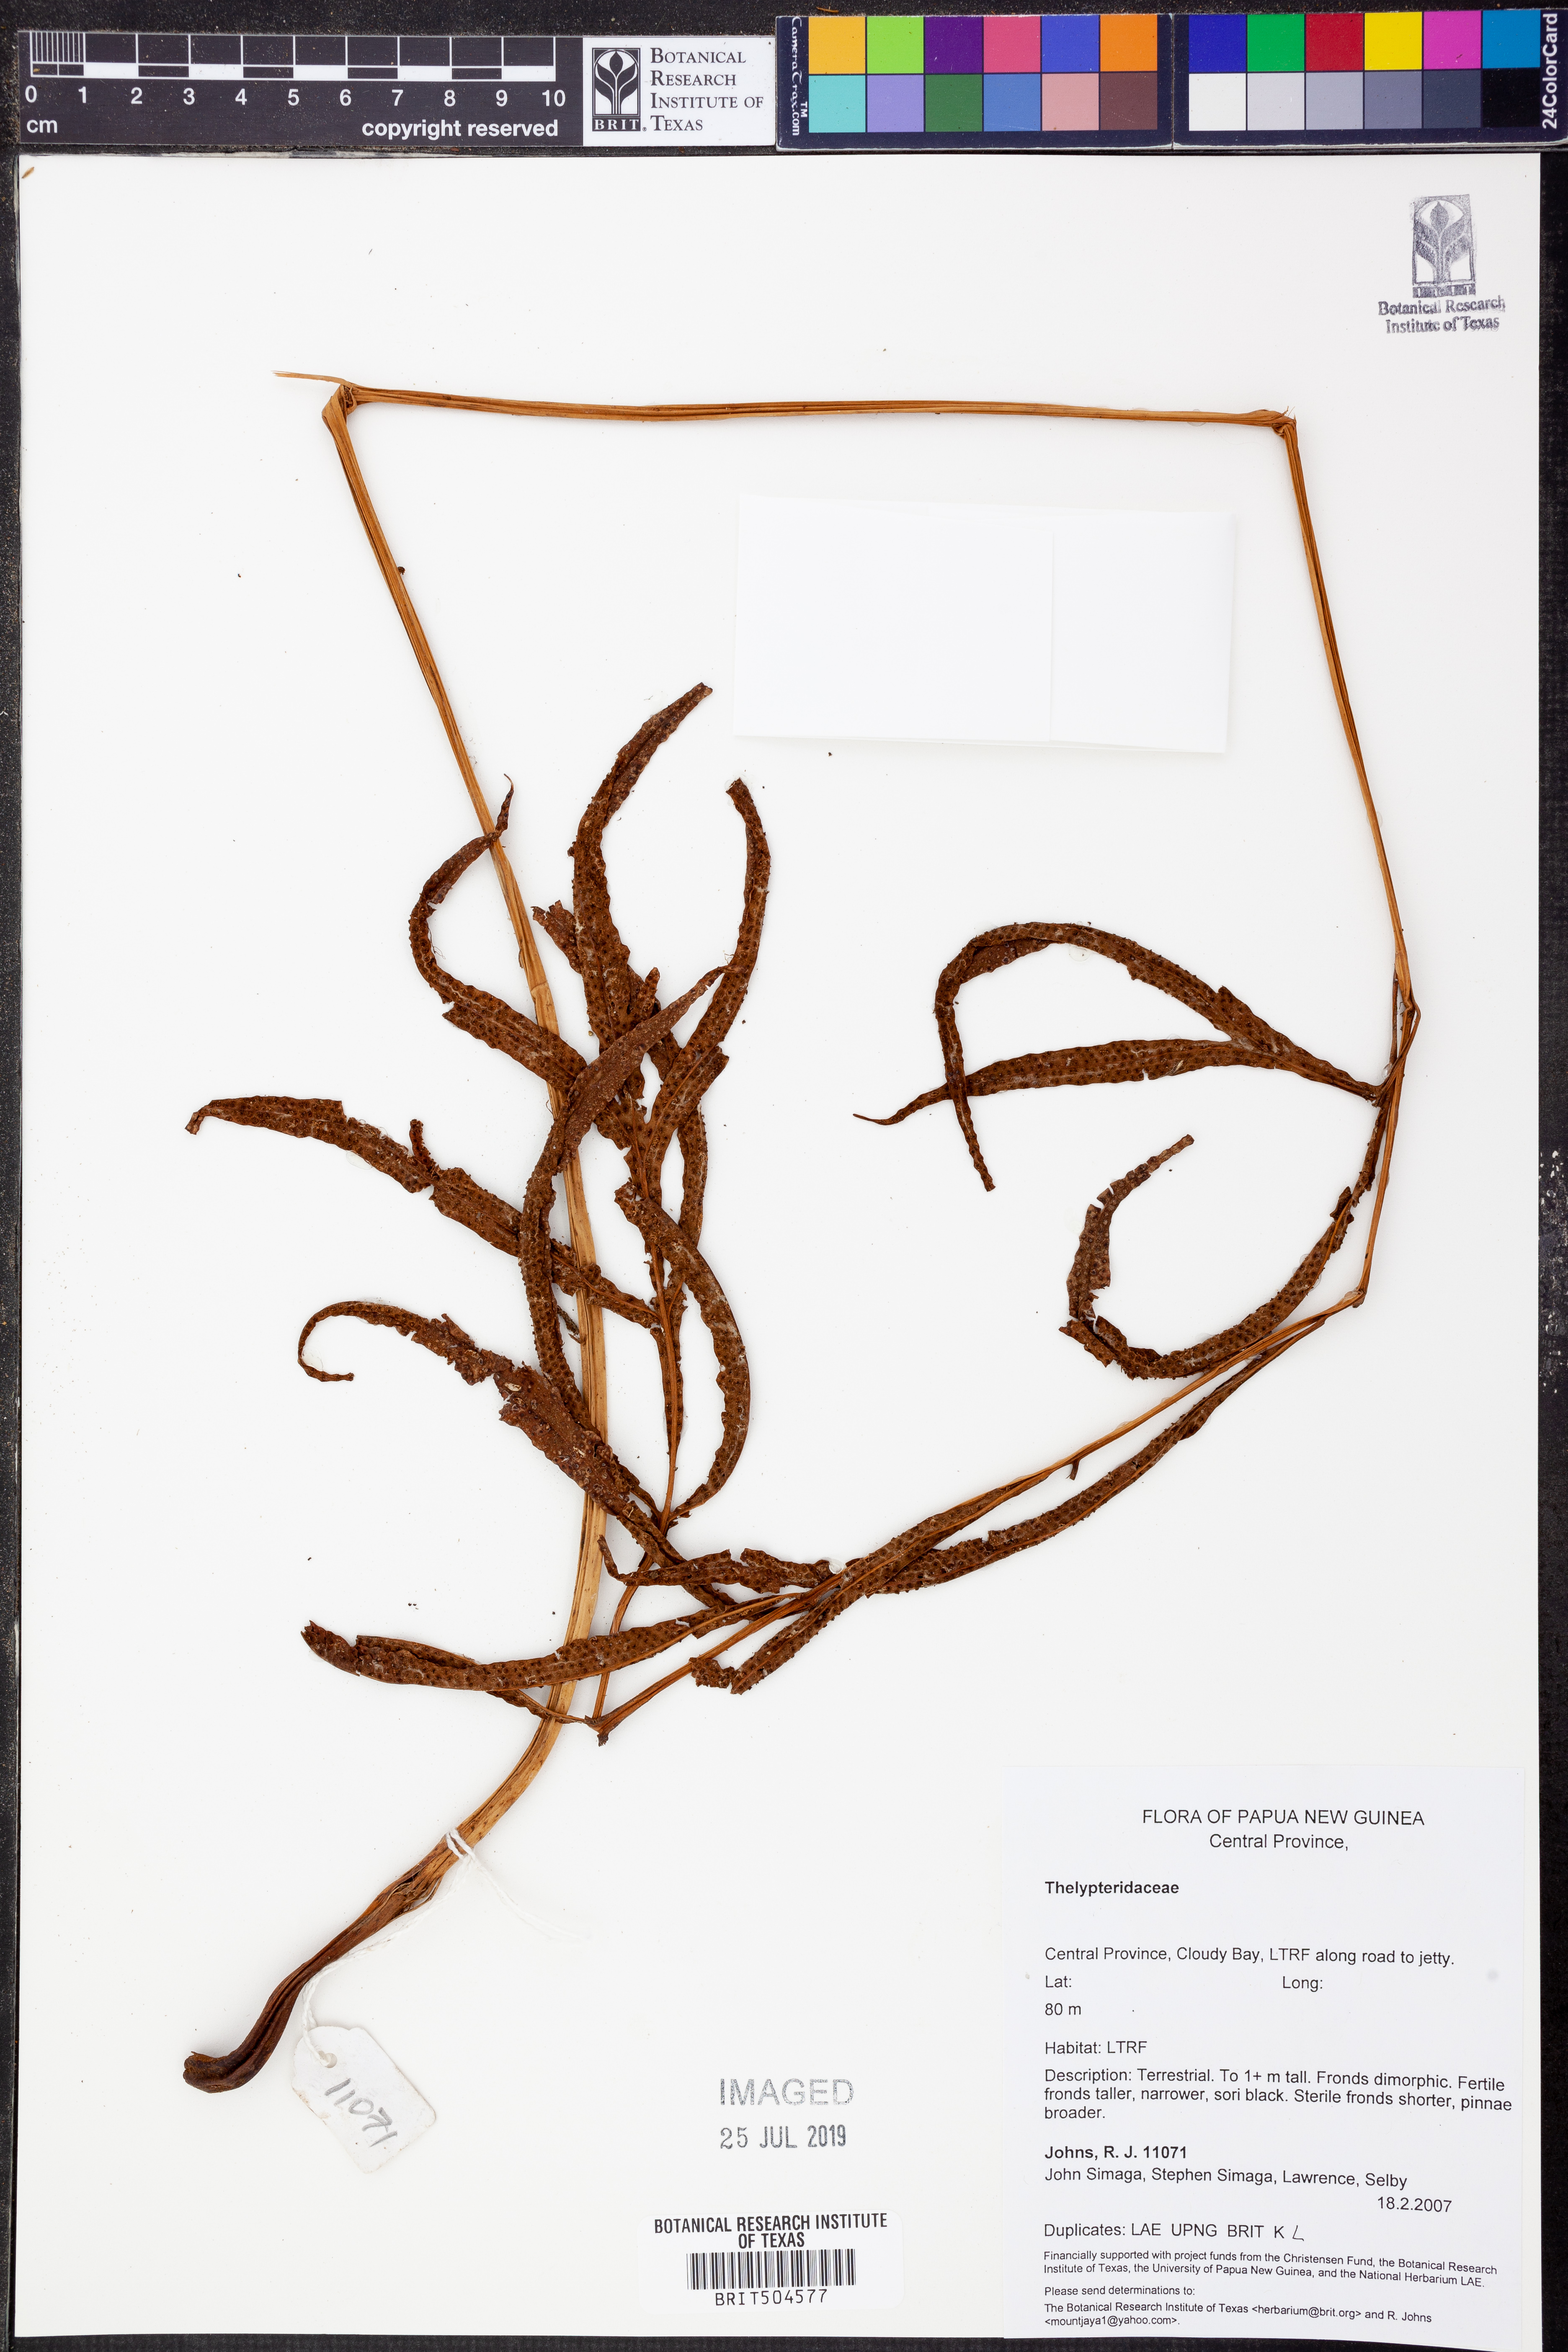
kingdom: Plantae
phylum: Tracheophyta
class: Polypodiopsida
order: Polypodiales
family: Thelypteridaceae
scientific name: Thelypteridaceae
